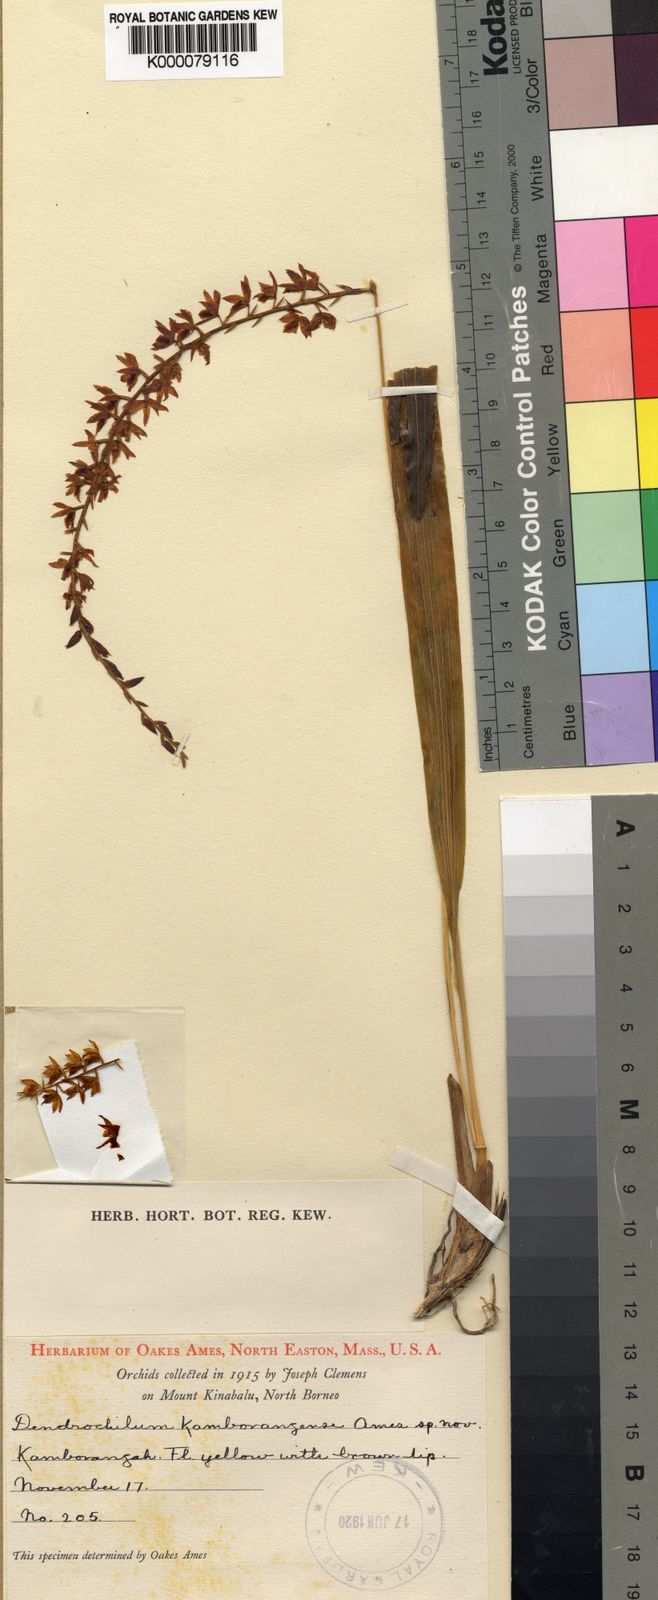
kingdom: Plantae
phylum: Tracheophyta
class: Liliopsida
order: Asparagales
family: Orchidaceae
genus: Coelogyne
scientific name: Coelogyne kamborangensis
